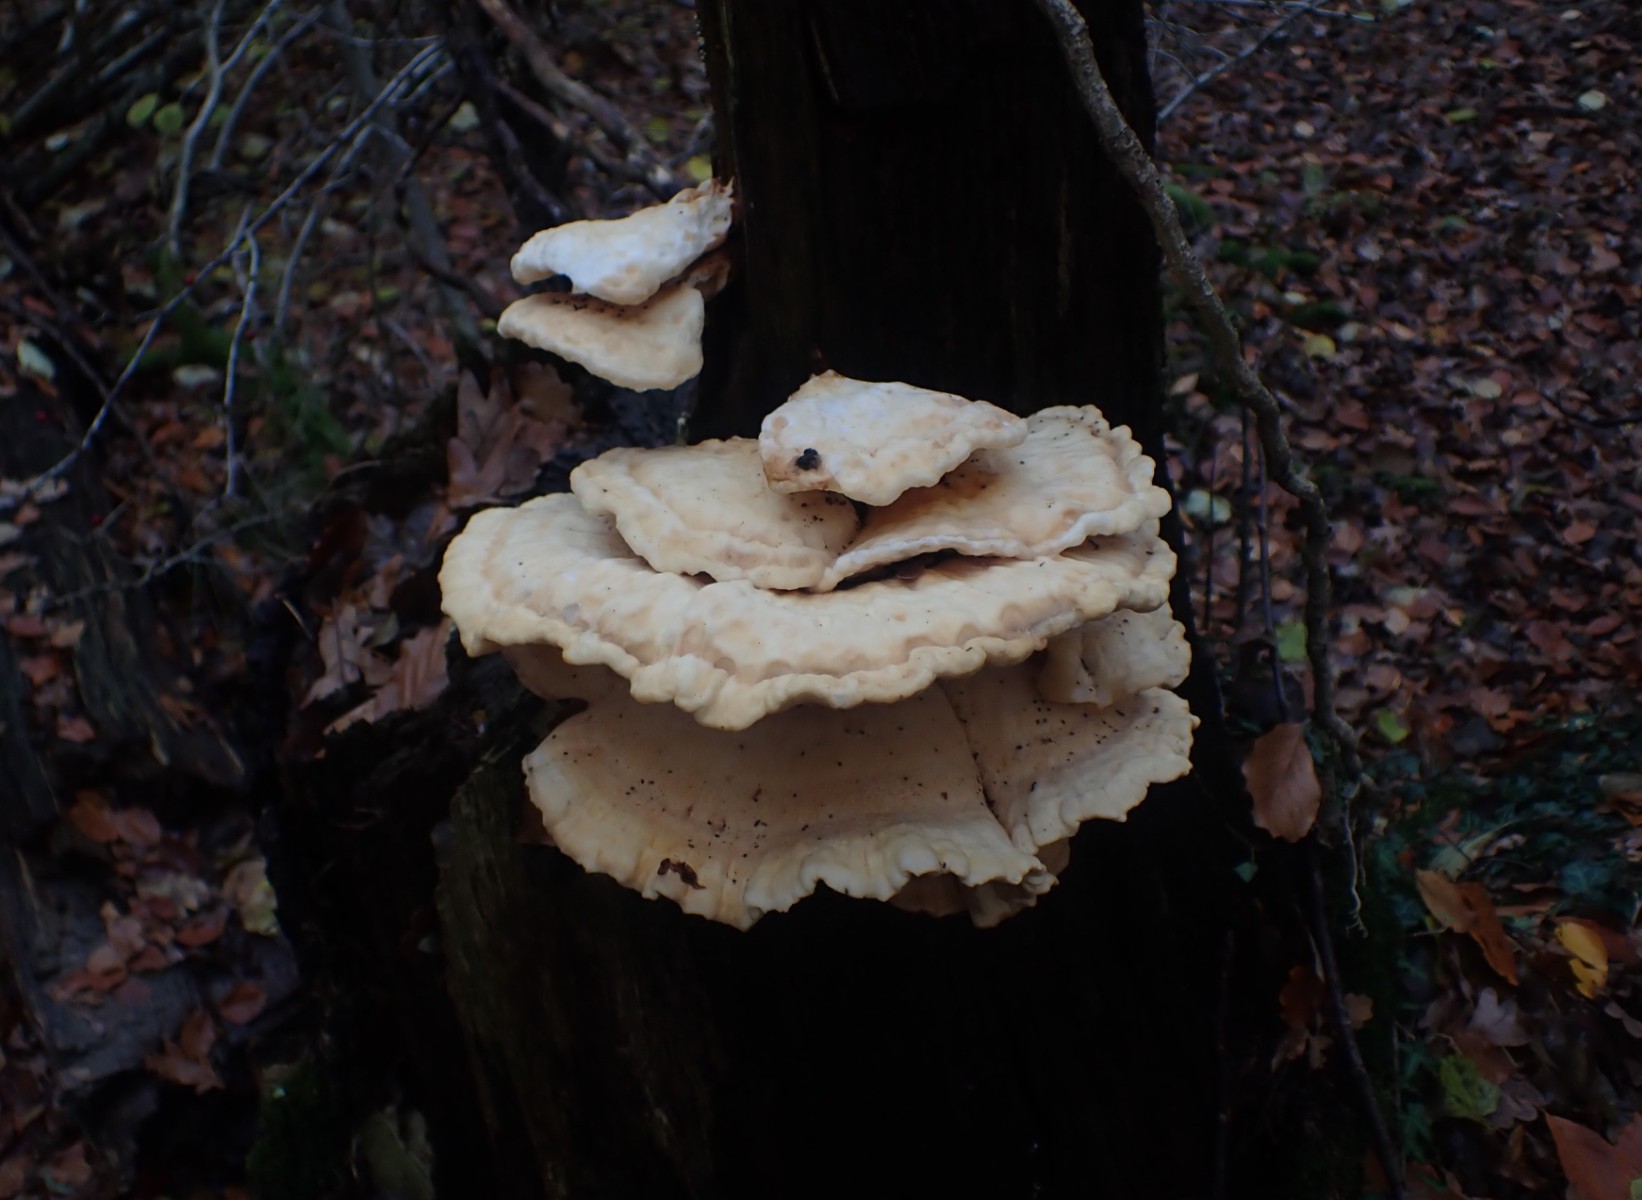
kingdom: Fungi
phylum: Basidiomycota
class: Agaricomycetes
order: Polyporales
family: Laetiporaceae
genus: Laetiporus
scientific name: Laetiporus sulphureus
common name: svovlporesvamp
